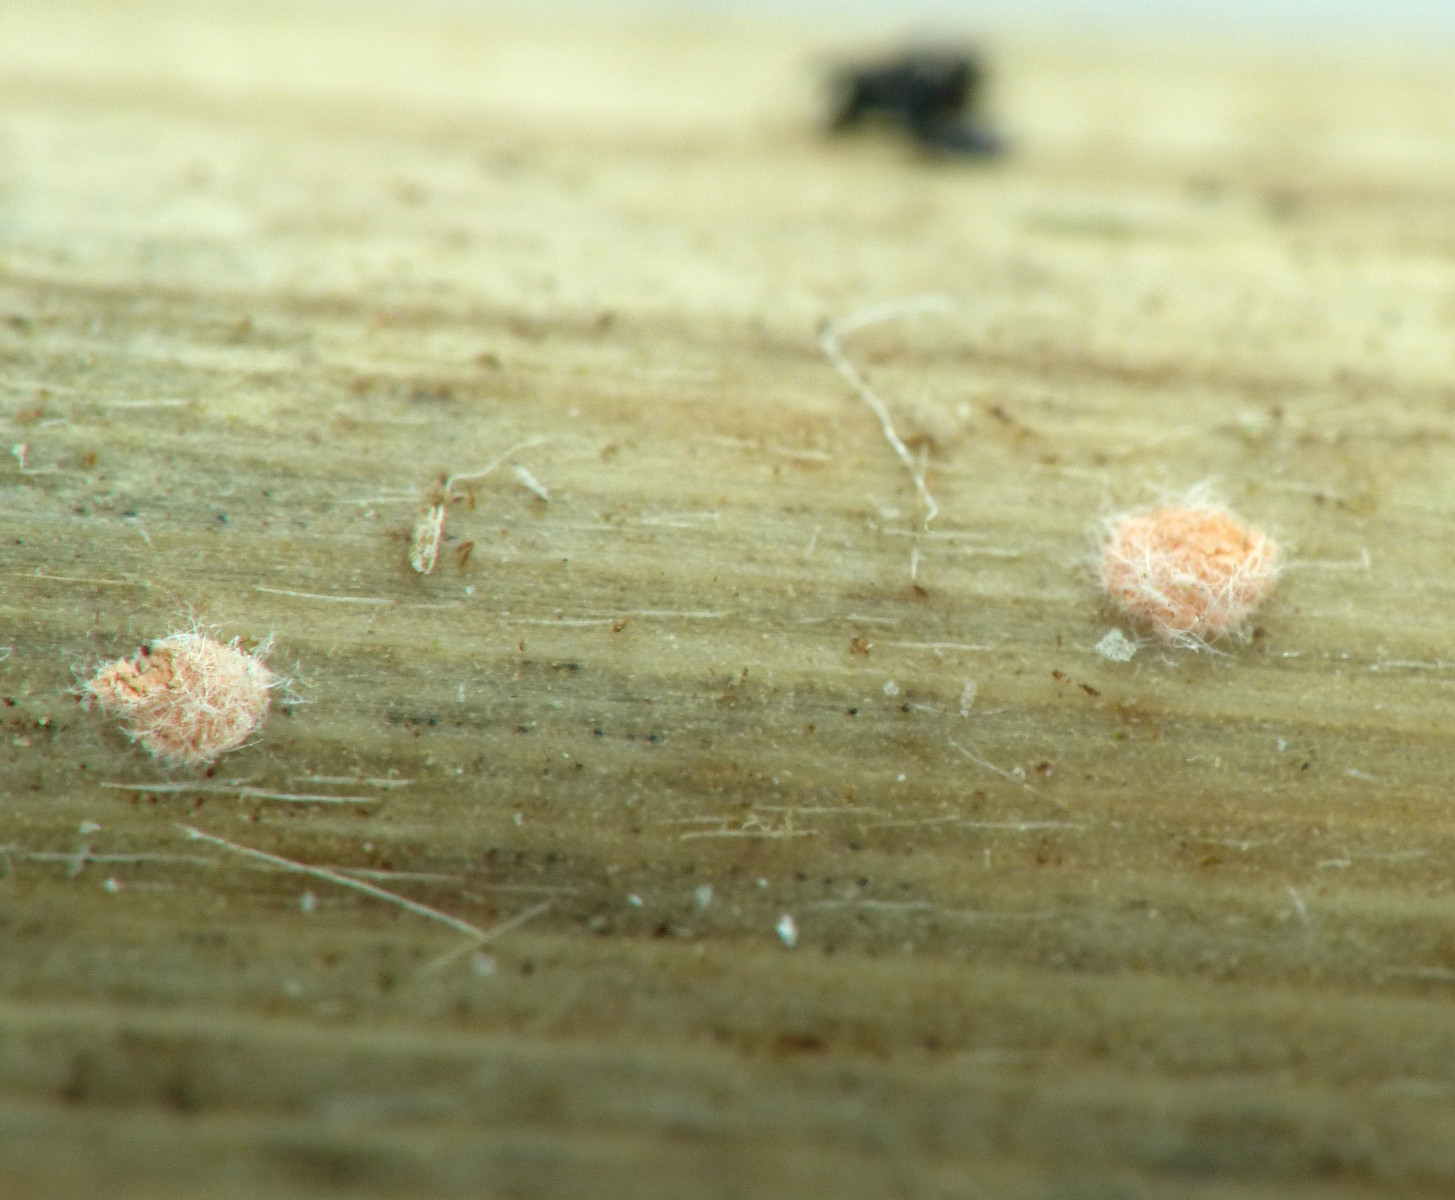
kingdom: Fungi
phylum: Ascomycota
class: Sordariomycetes
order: Hypocreales
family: Nectriaceae
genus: Volutella
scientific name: Volutella arundinis
